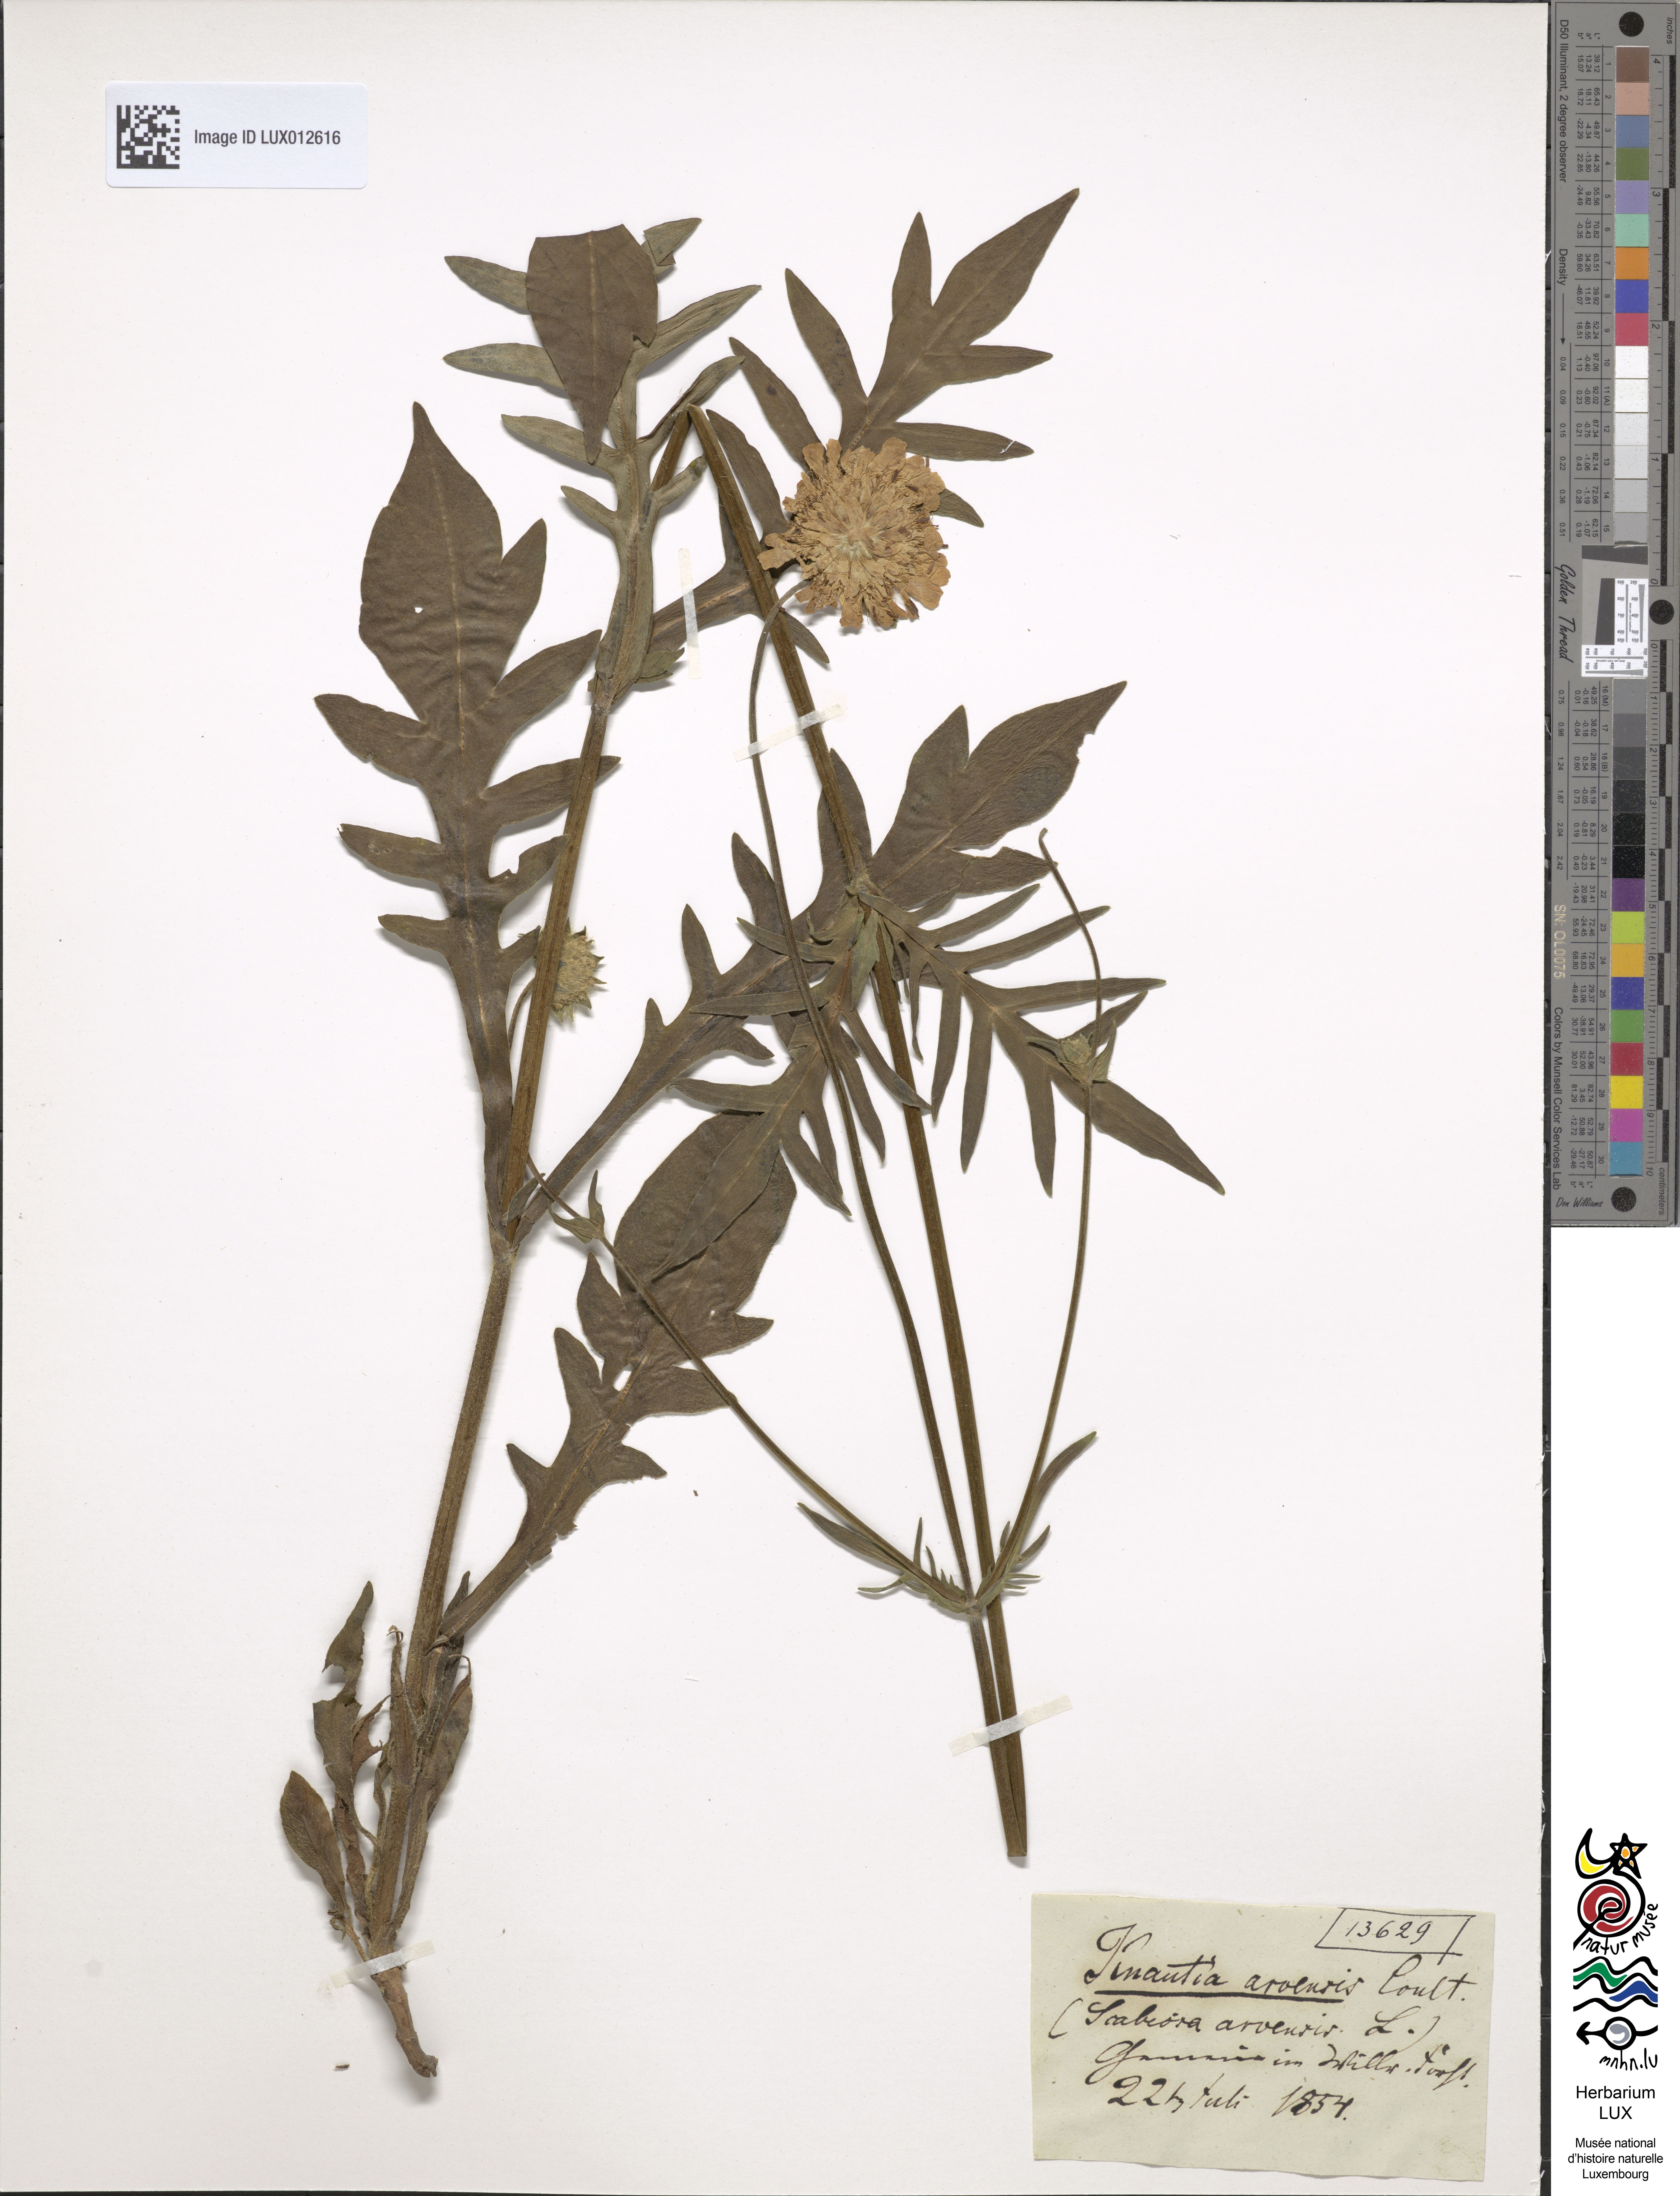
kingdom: Plantae
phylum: Tracheophyta
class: Magnoliopsida
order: Dipsacales
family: Caprifoliaceae
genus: Knautia
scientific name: Knautia arvensis
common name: Field scabiosa
